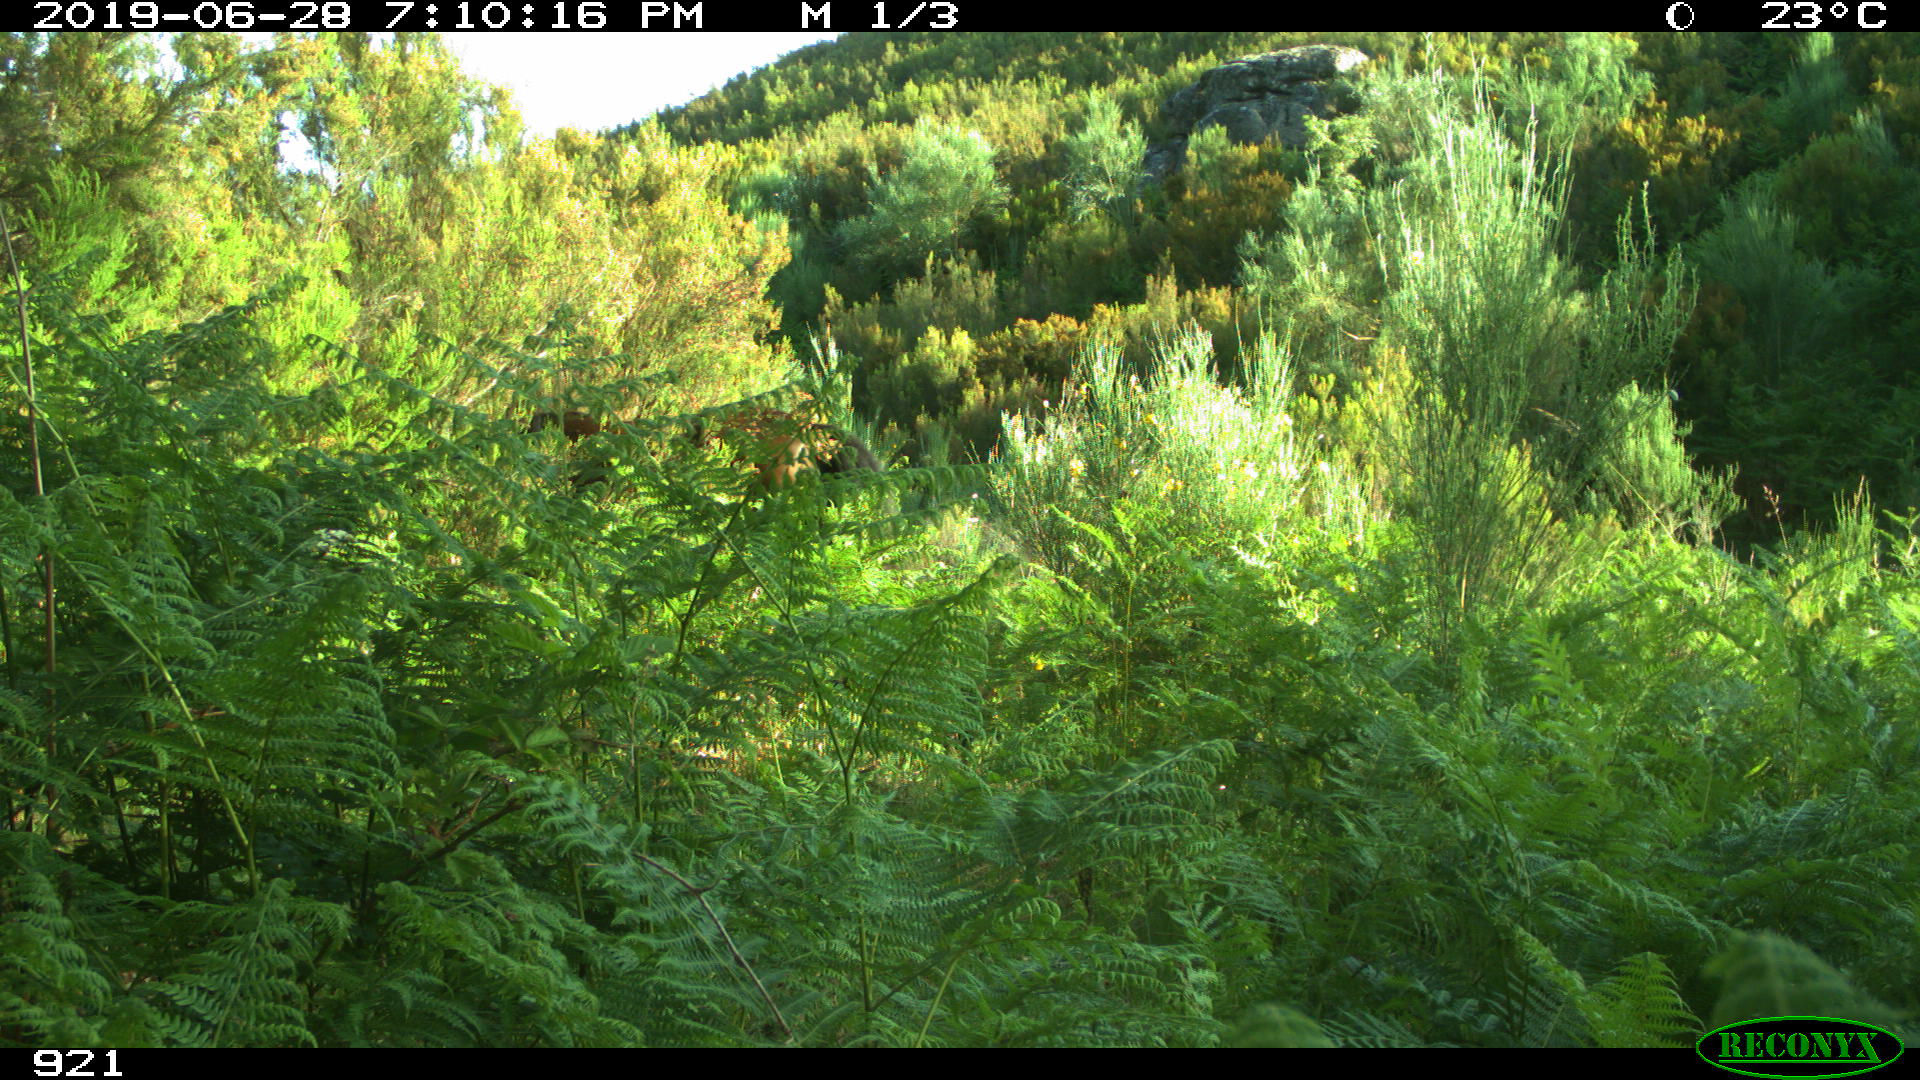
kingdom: Animalia
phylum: Chordata
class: Mammalia
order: Perissodactyla
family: Equidae
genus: Equus
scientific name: Equus caballus
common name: Horse
